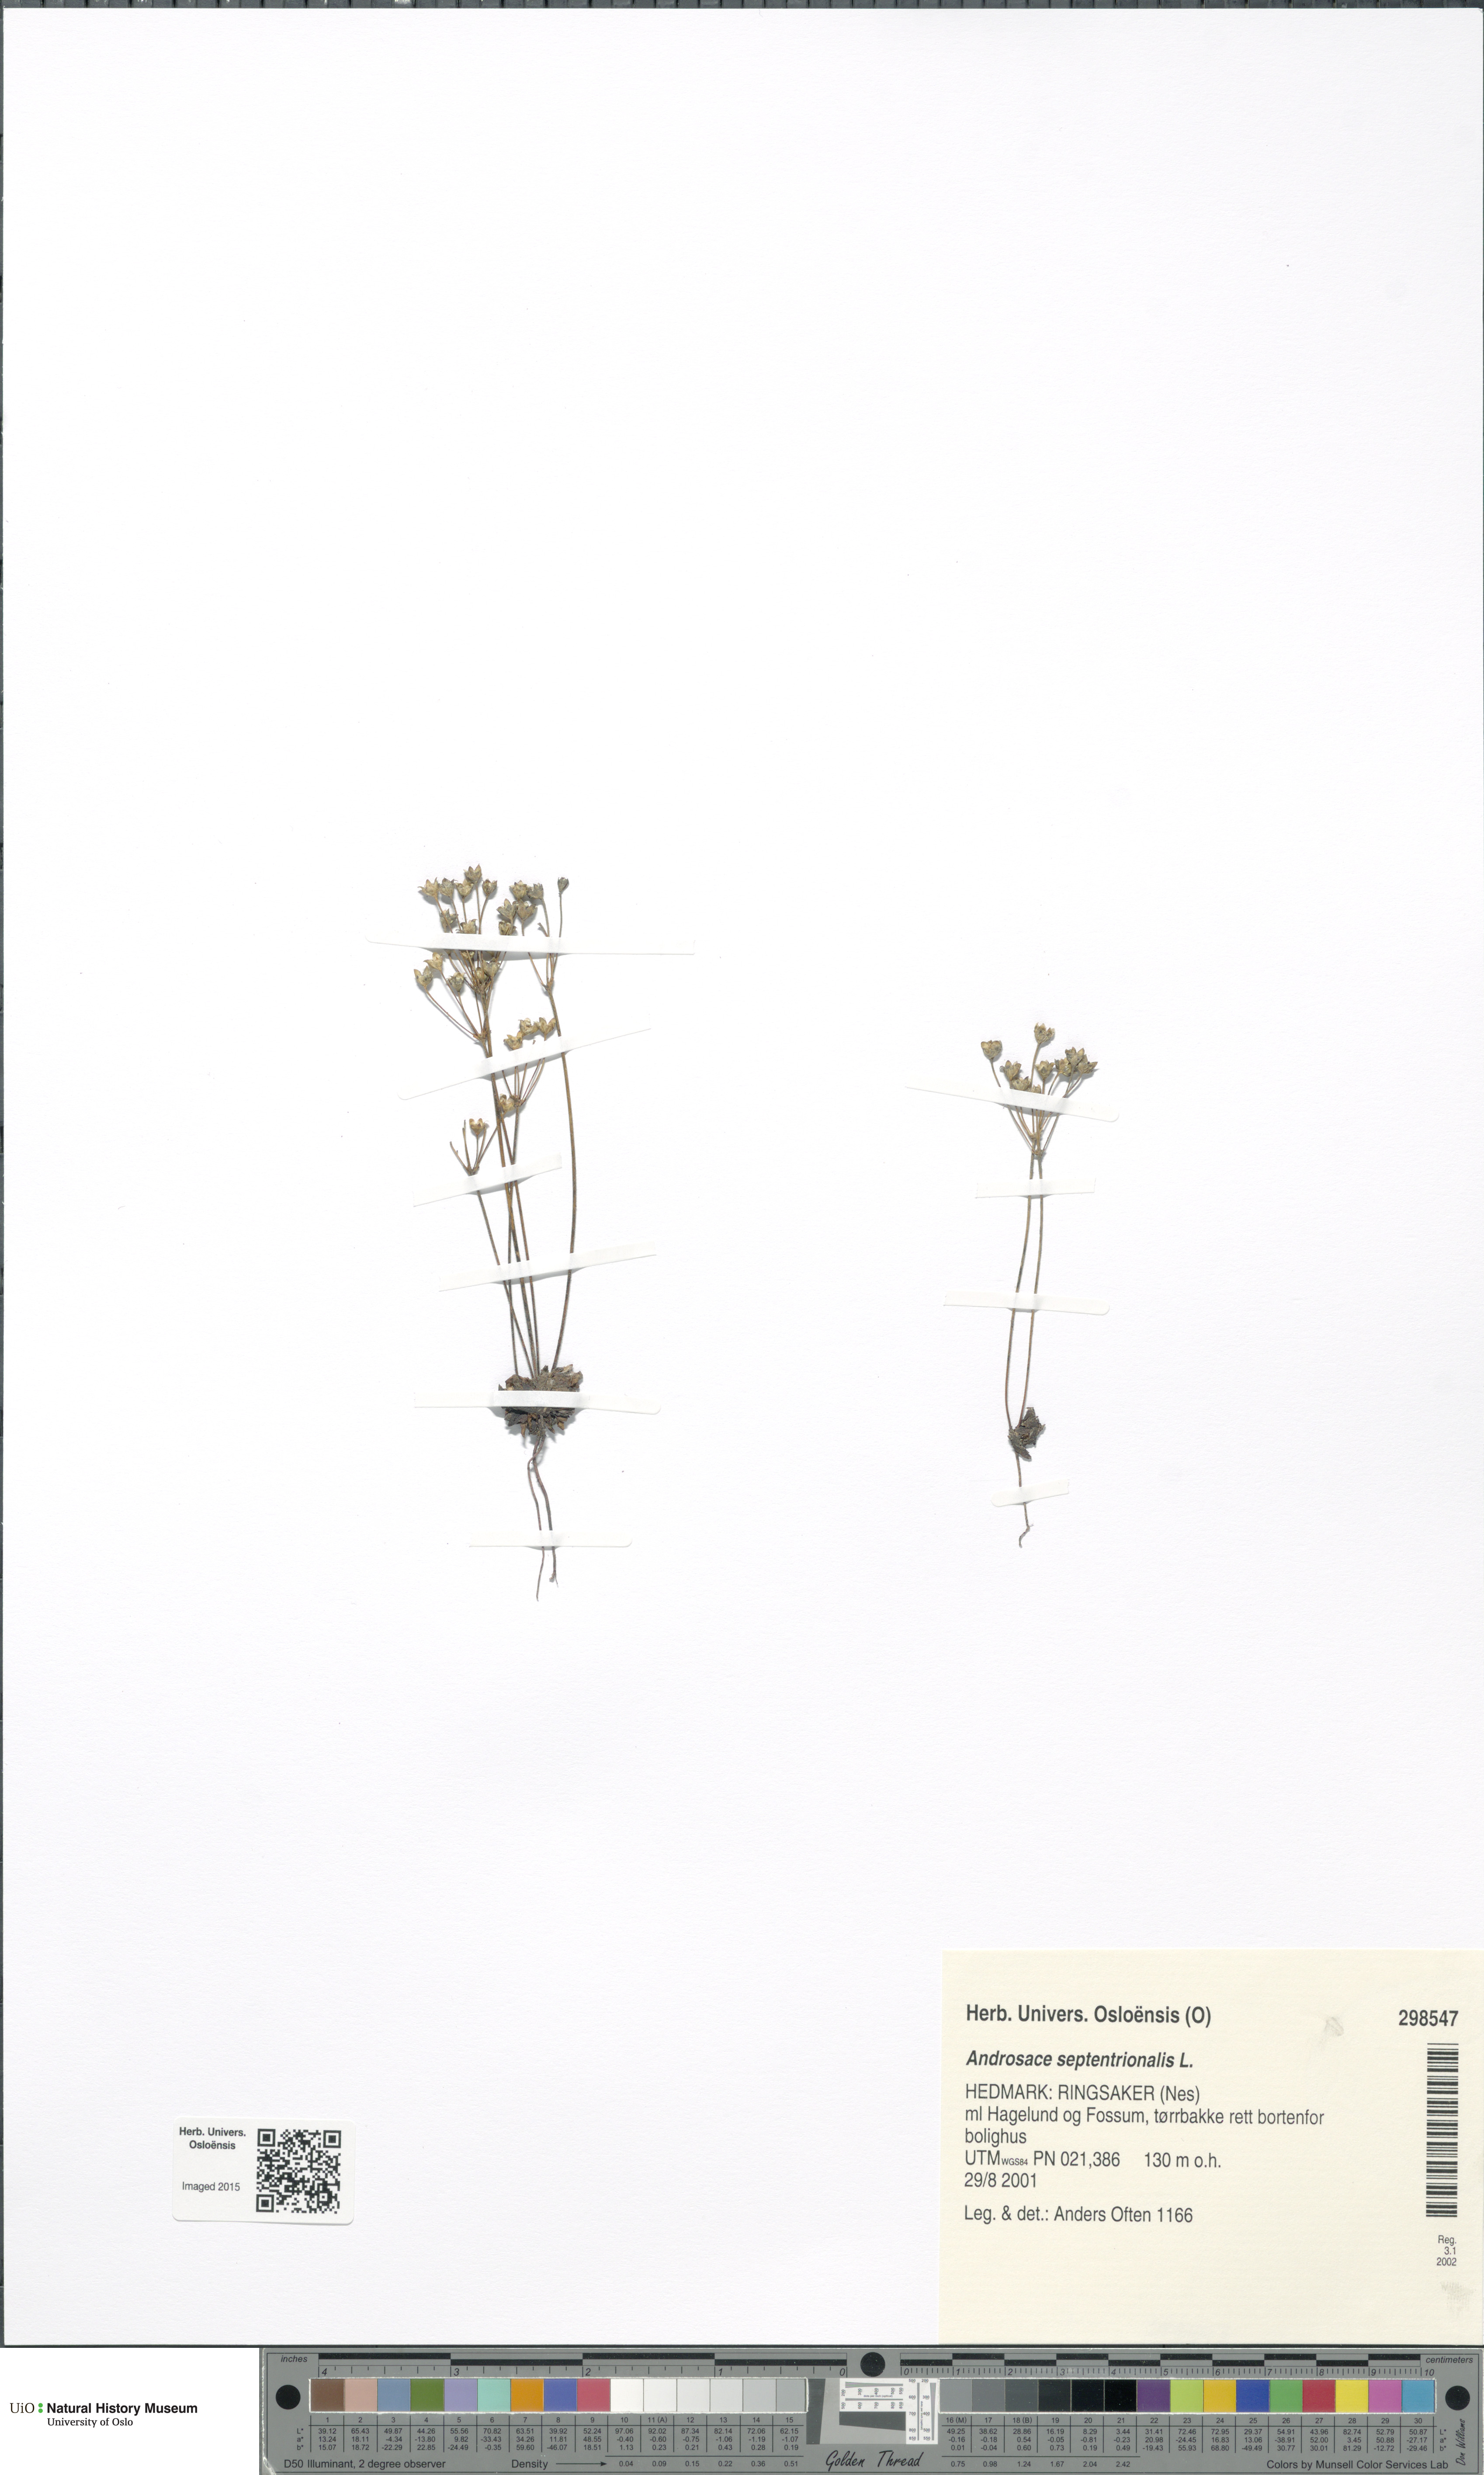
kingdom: Plantae
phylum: Tracheophyta
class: Magnoliopsida
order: Ericales
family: Primulaceae
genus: Androsace
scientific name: Androsace septentrionalis
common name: Hairy northern fairy-candelabra
